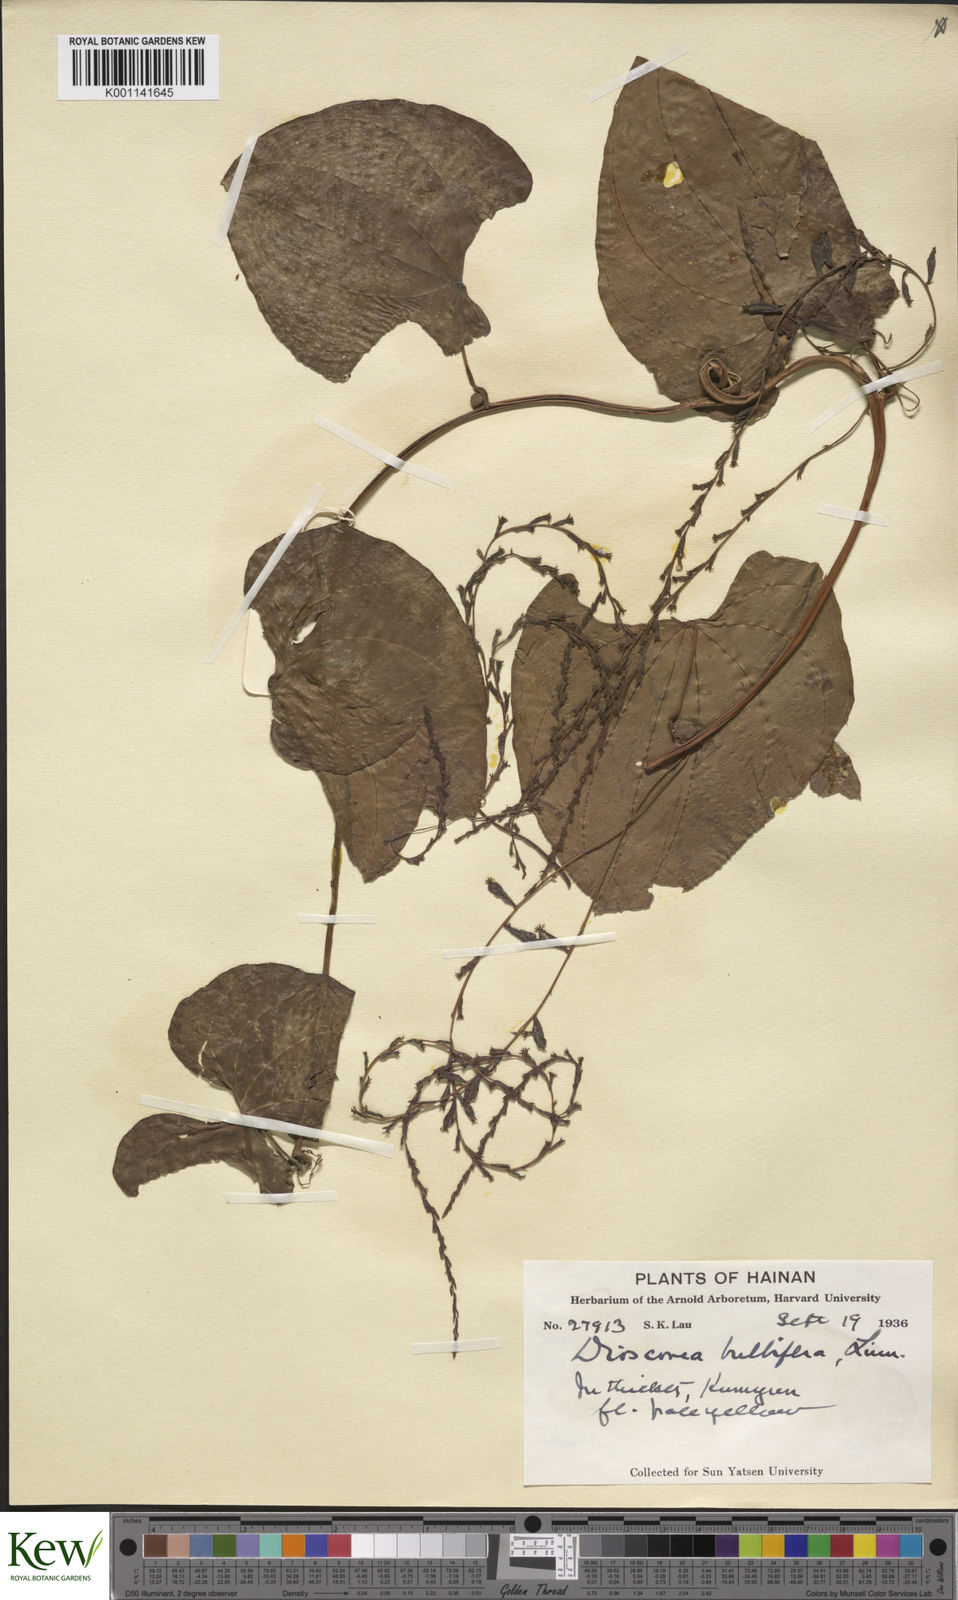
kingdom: Plantae
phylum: Tracheophyta
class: Liliopsida
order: Dioscoreales
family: Dioscoreaceae
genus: Dioscorea
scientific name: Dioscorea bulbifera
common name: Air yam
